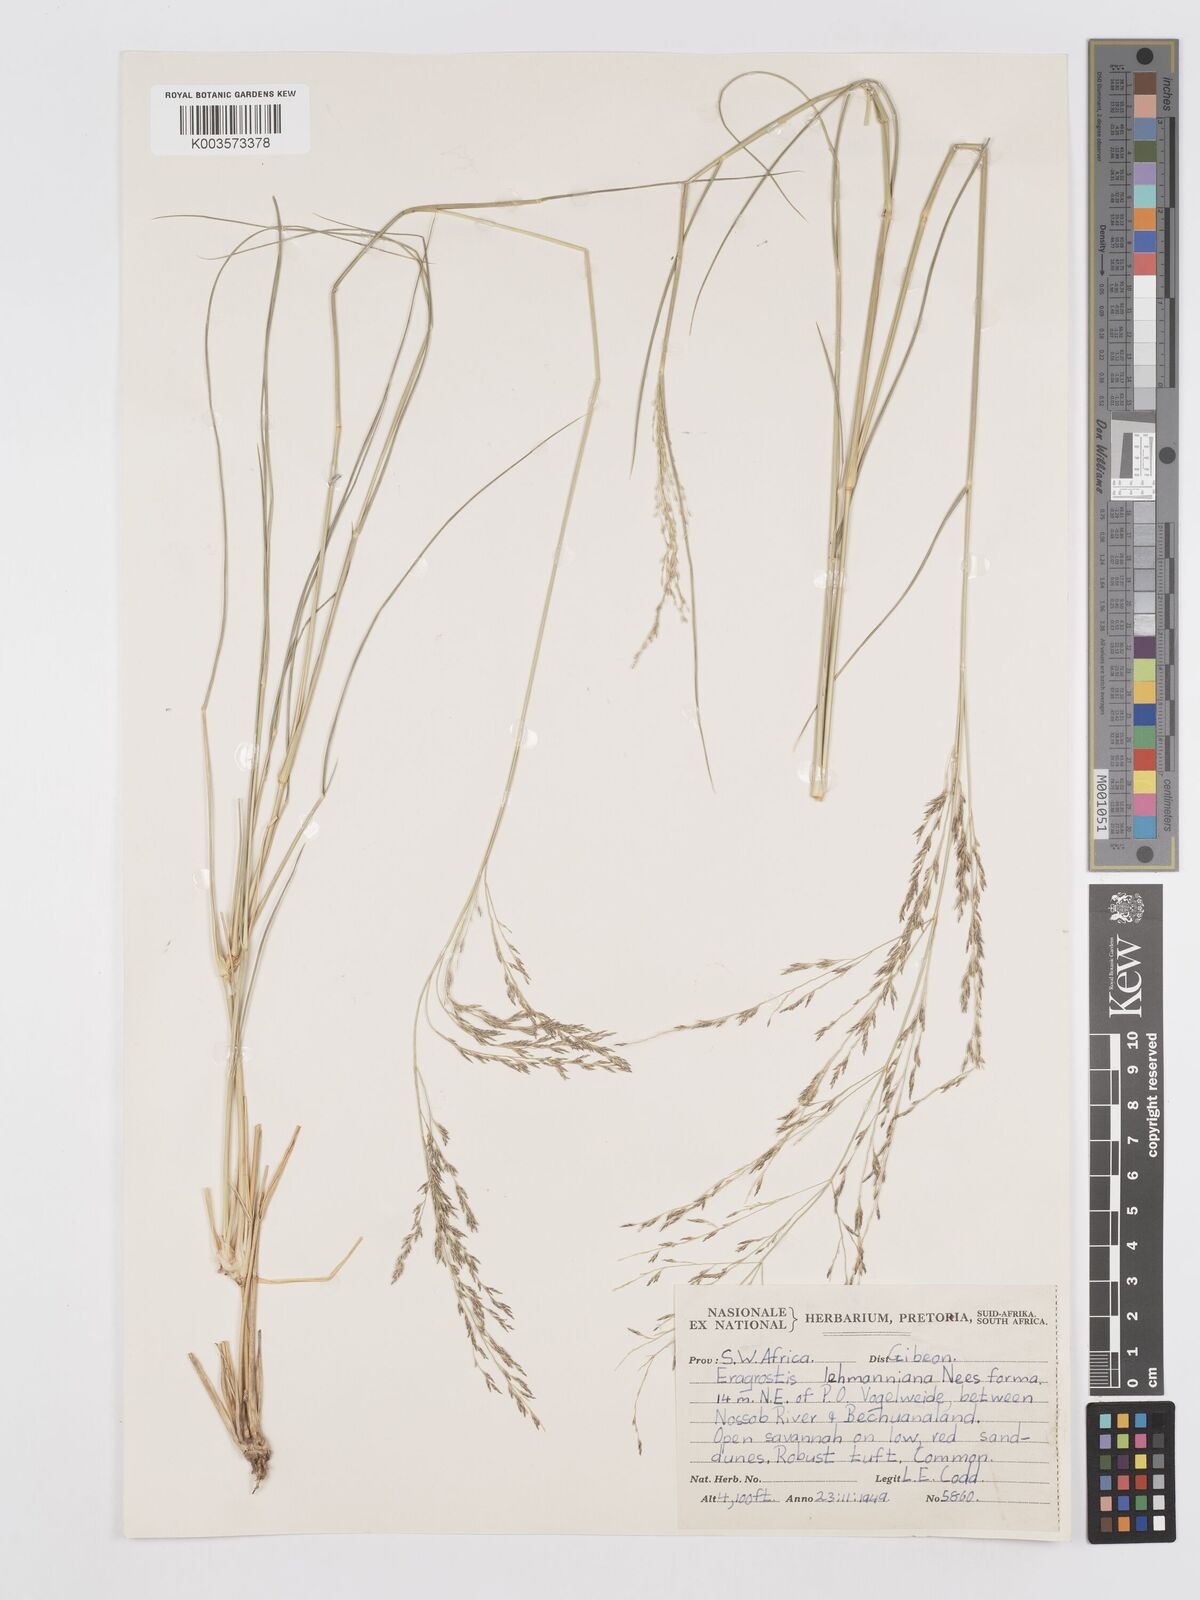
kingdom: Plantae
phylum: Tracheophyta
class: Liliopsida
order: Poales
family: Poaceae
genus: Eragrostis
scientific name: Eragrostis lehmanniana
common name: Lehmann lovegrass
